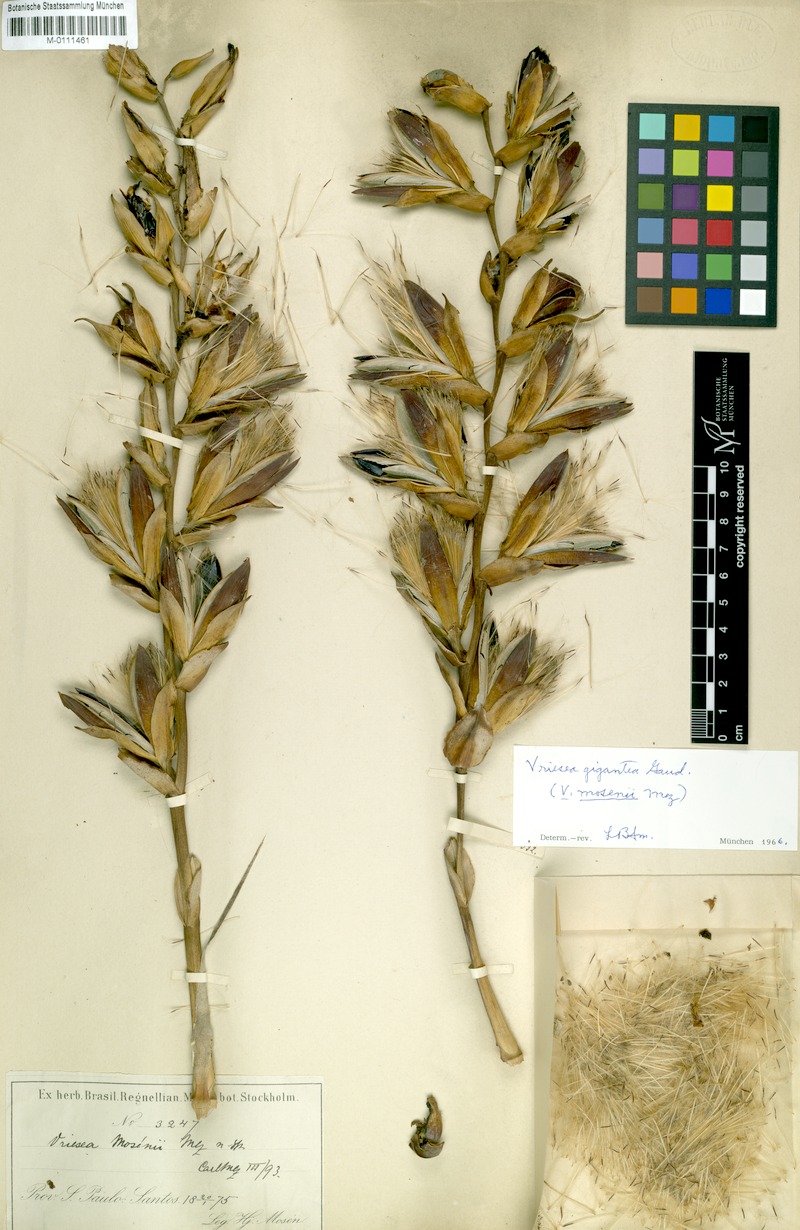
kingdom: Plantae
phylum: Tracheophyta
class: Liliopsida
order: Poales
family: Bromeliaceae
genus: Vriesea
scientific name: Vriesea gigantea
